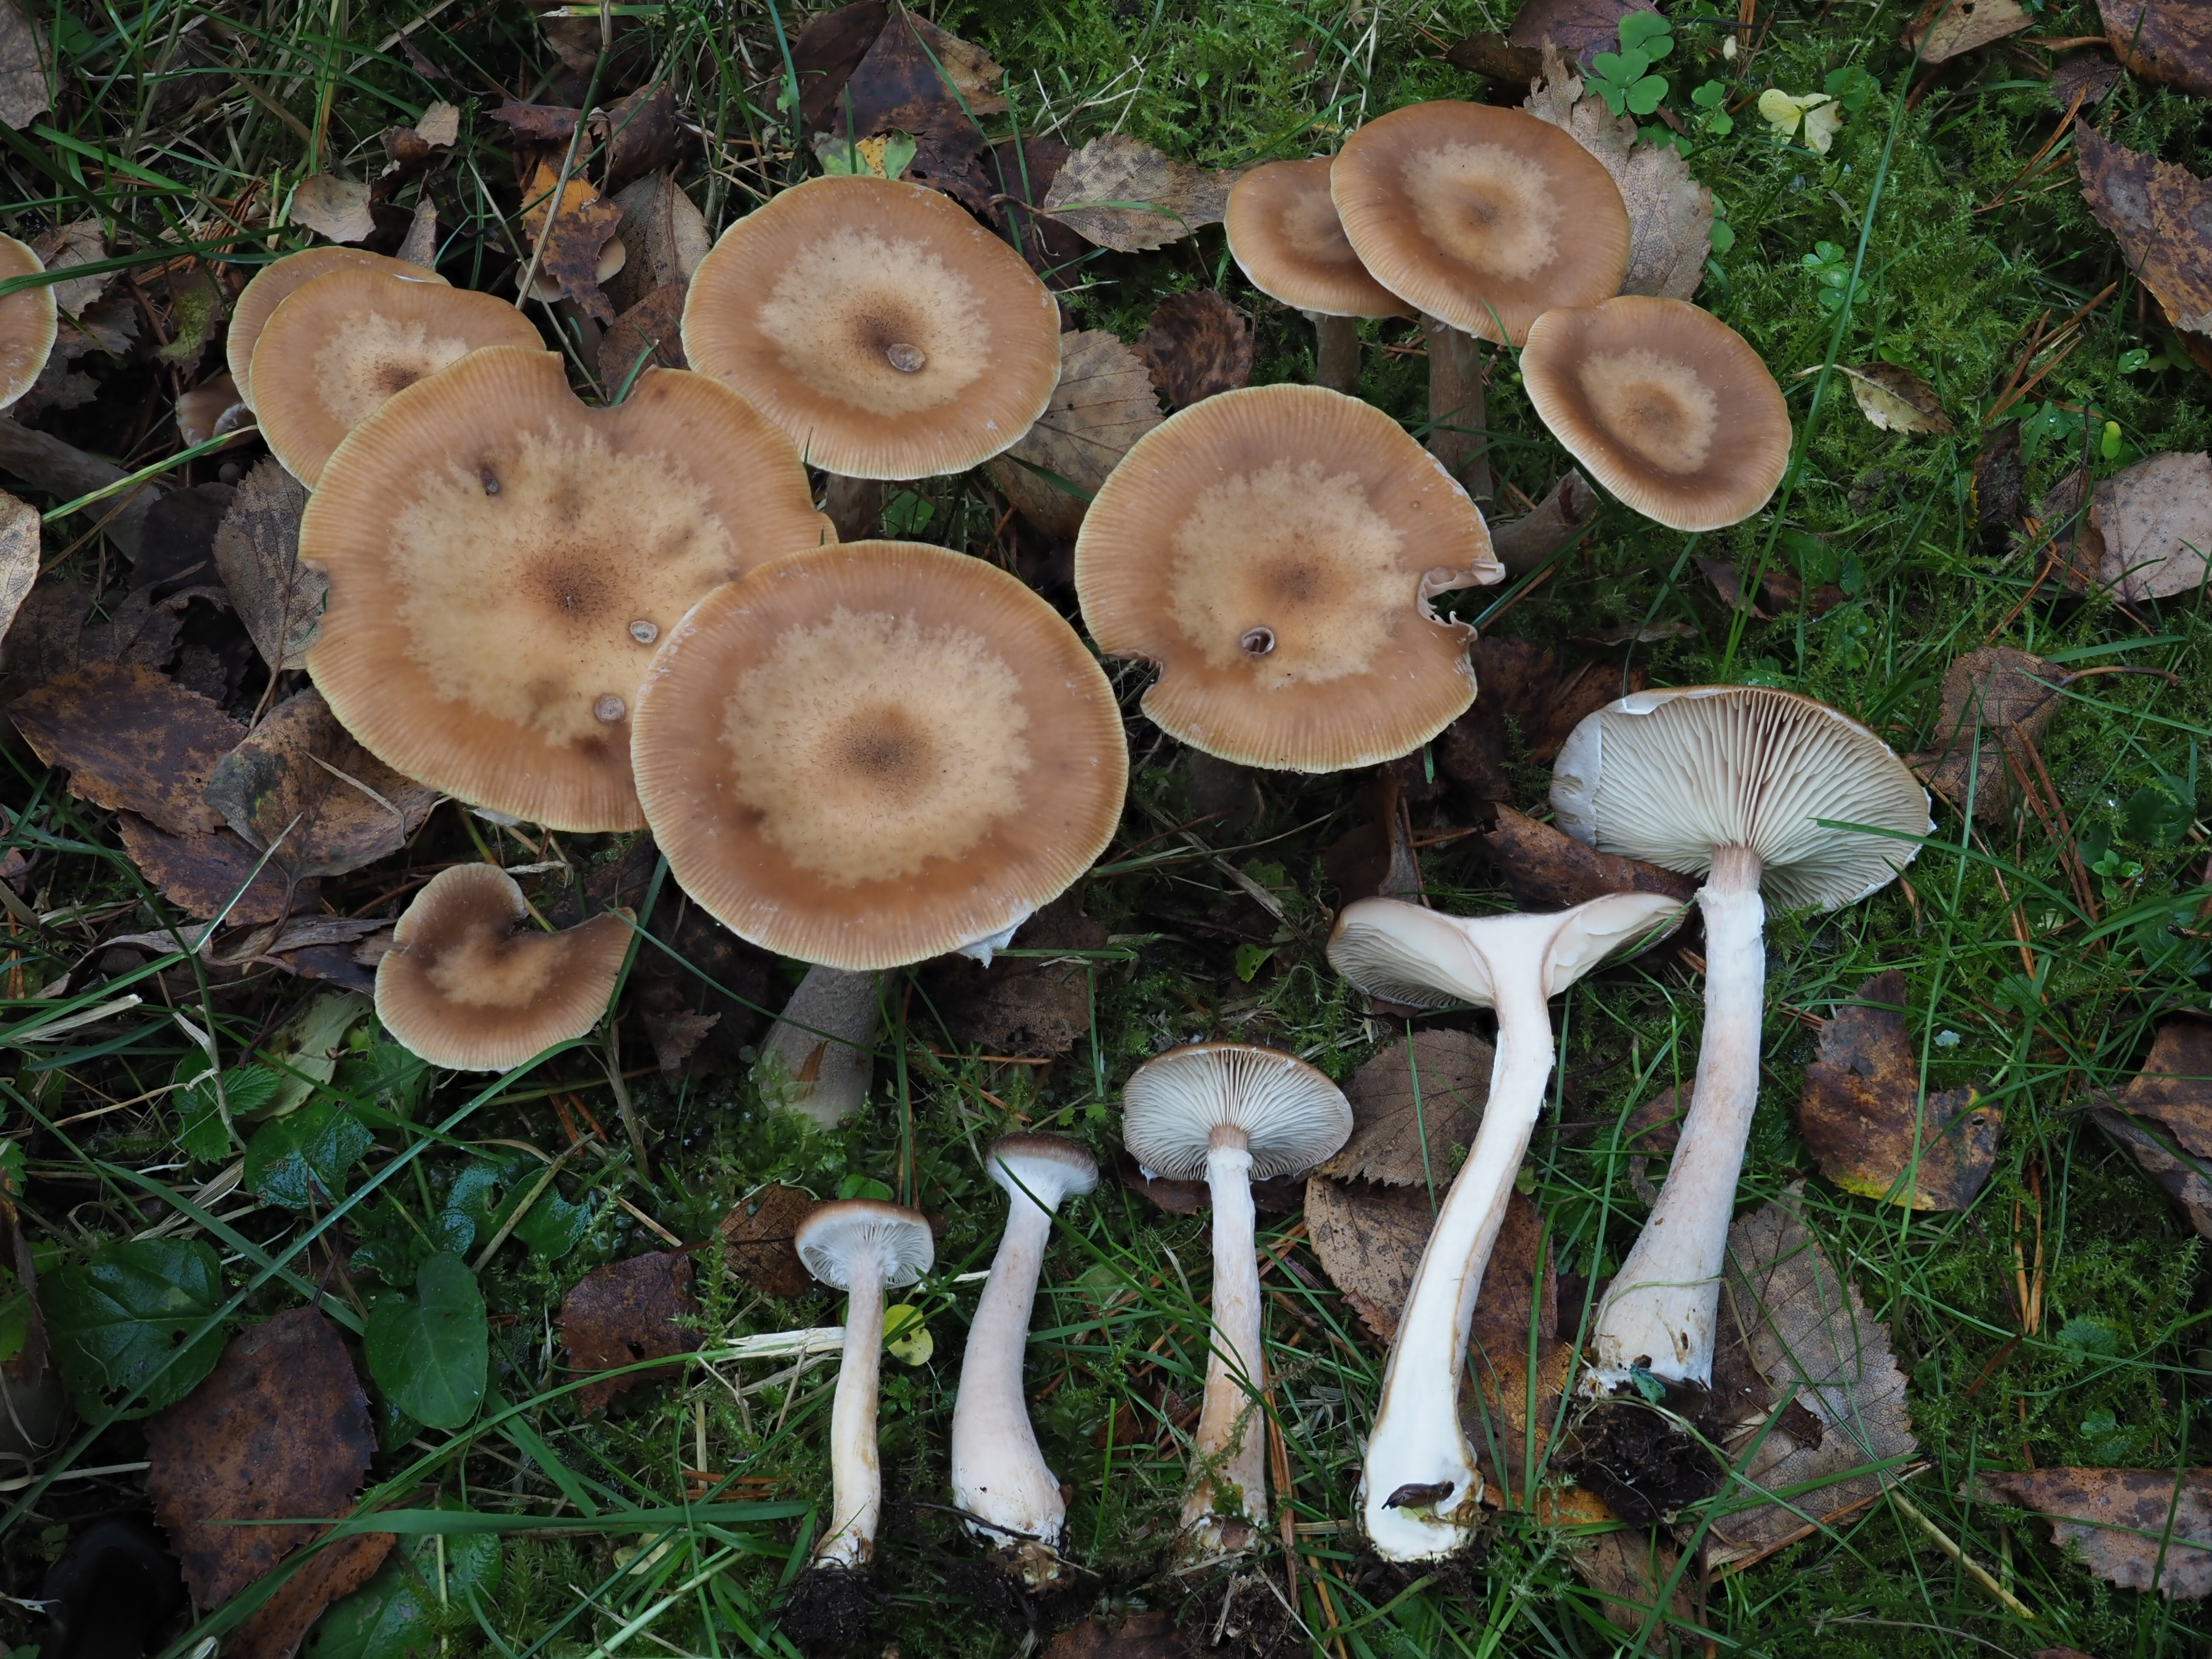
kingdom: Fungi
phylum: Basidiomycota
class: Agaricomycetes
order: Agaricales
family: Physalacriaceae
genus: Armillaria
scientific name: Armillaria lutea
